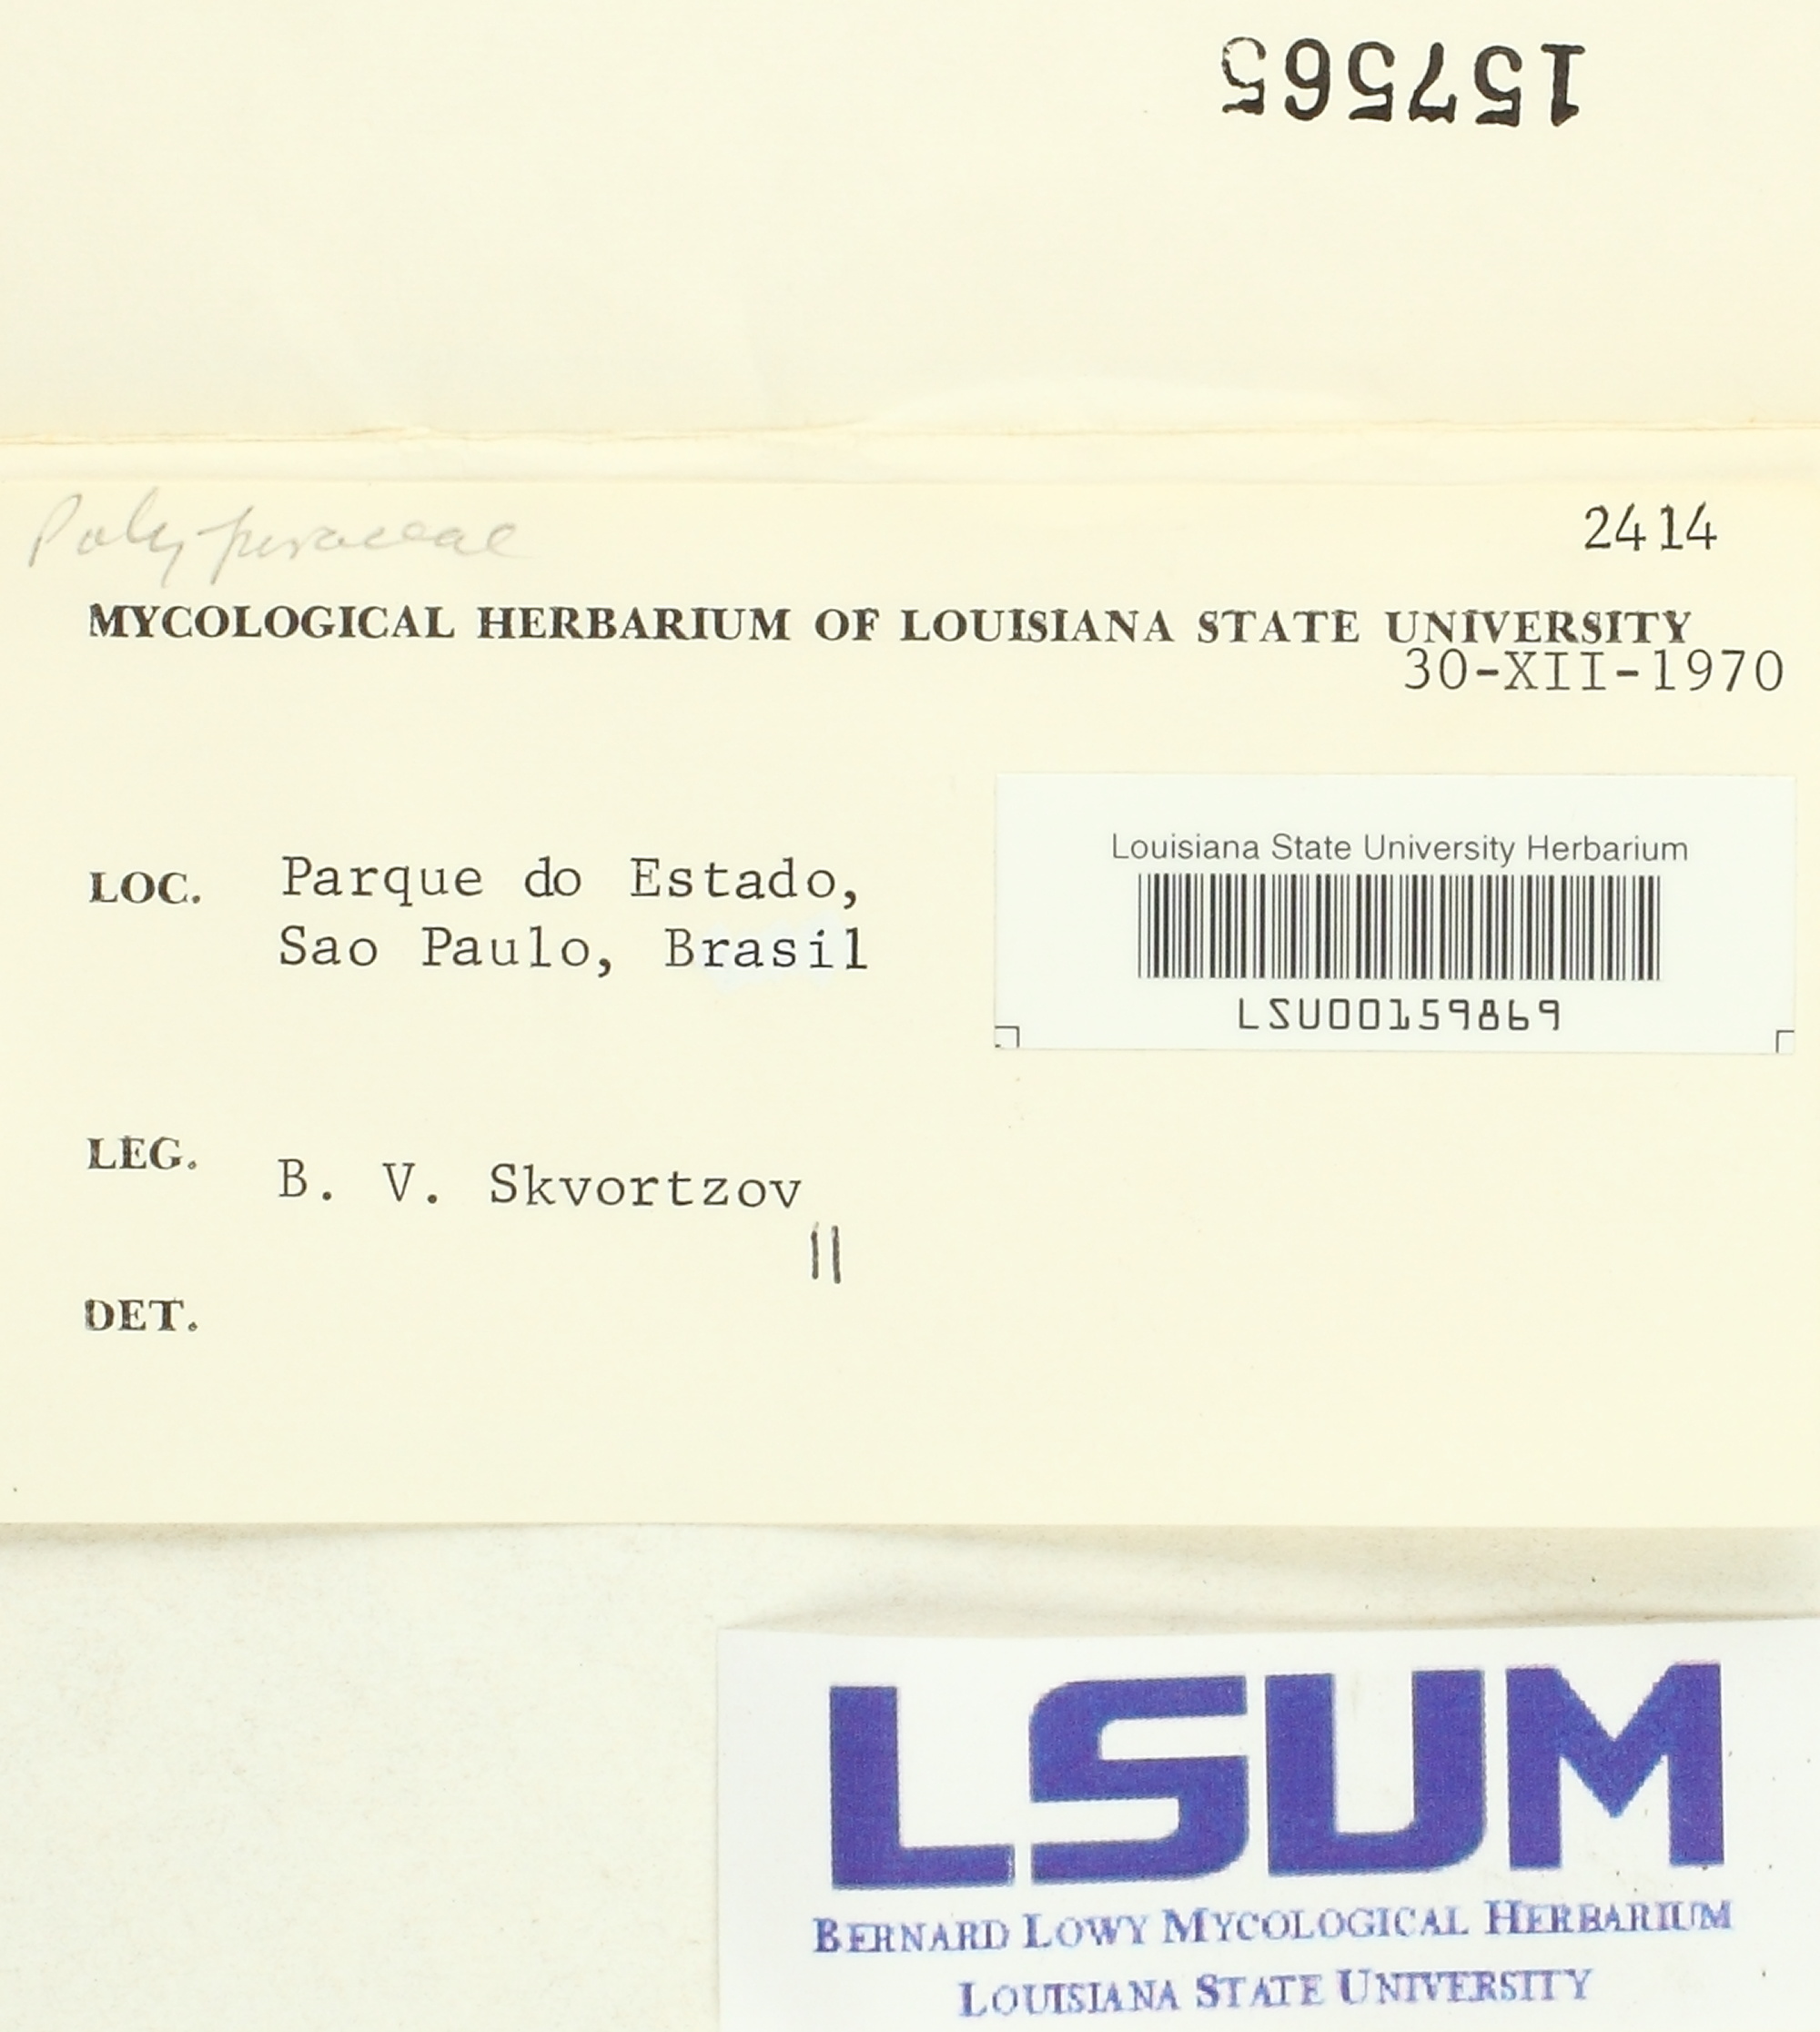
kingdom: Fungi
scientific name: Fungi
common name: Fungi
